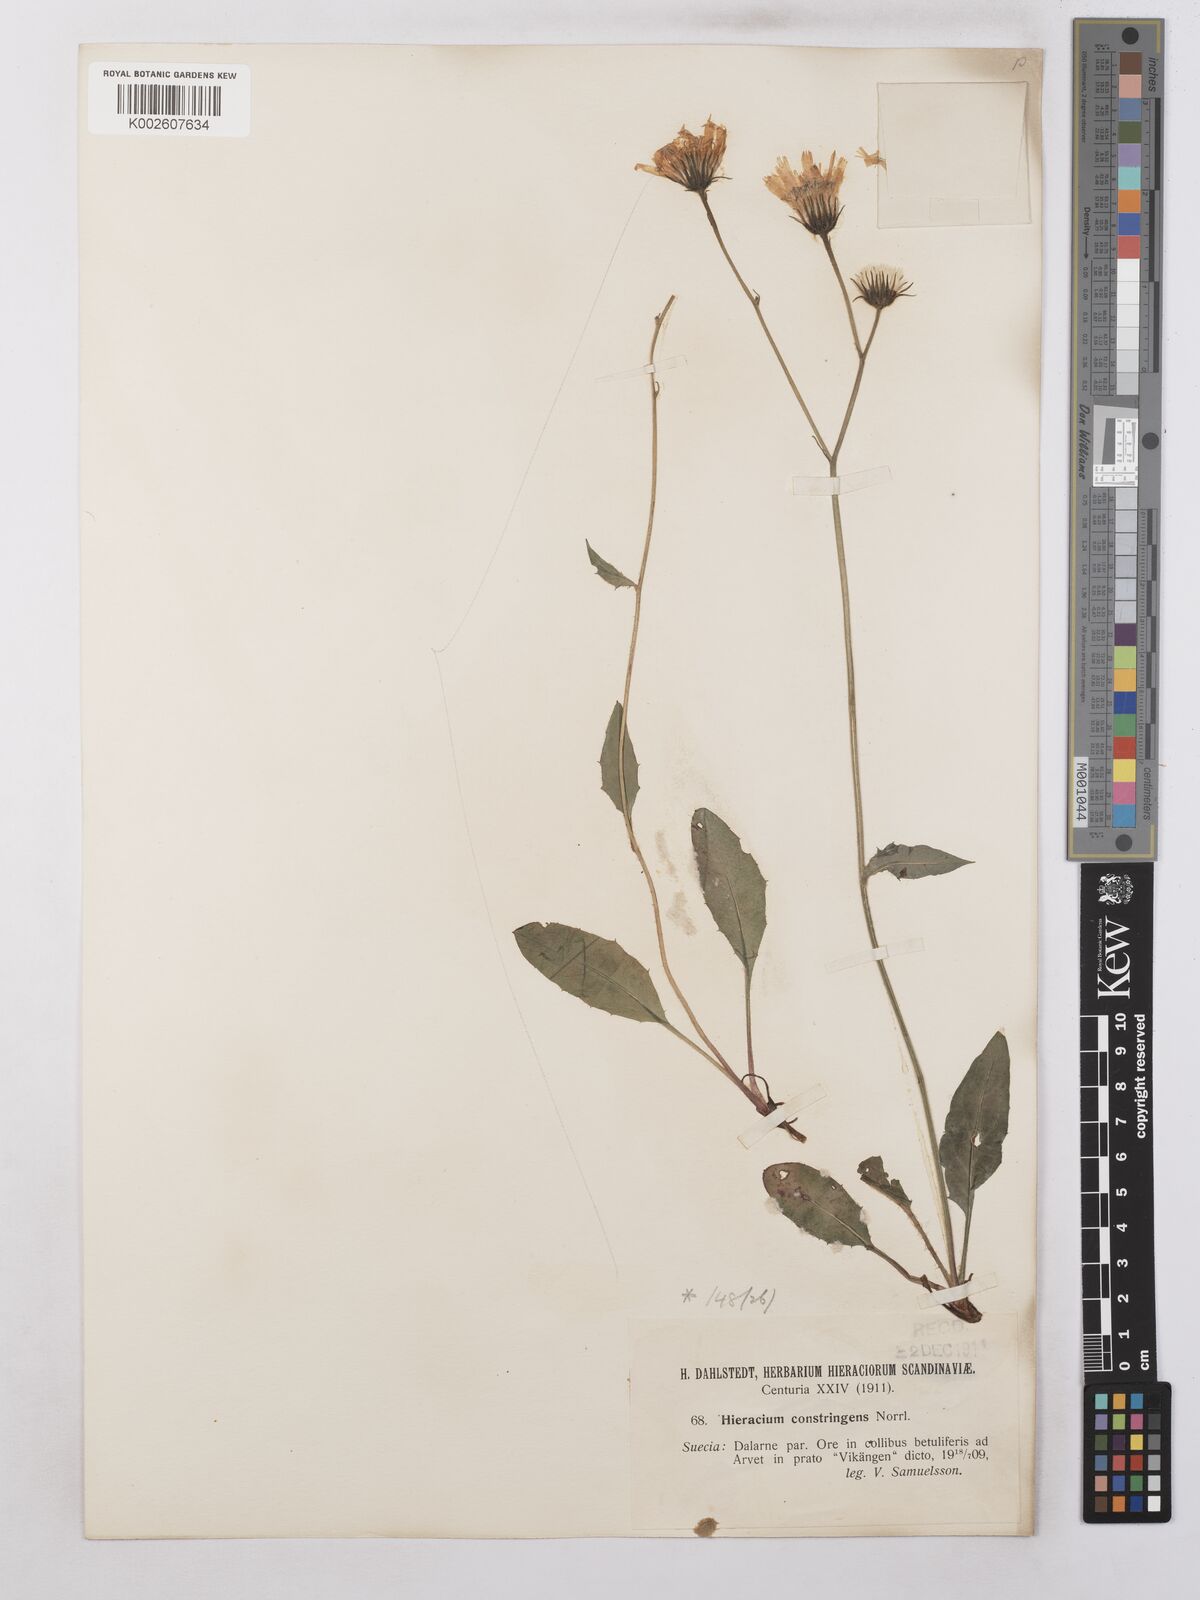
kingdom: Plantae
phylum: Tracheophyta
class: Magnoliopsida
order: Asterales
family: Asteraceae
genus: Hieracium
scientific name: Hieracium subramosum
